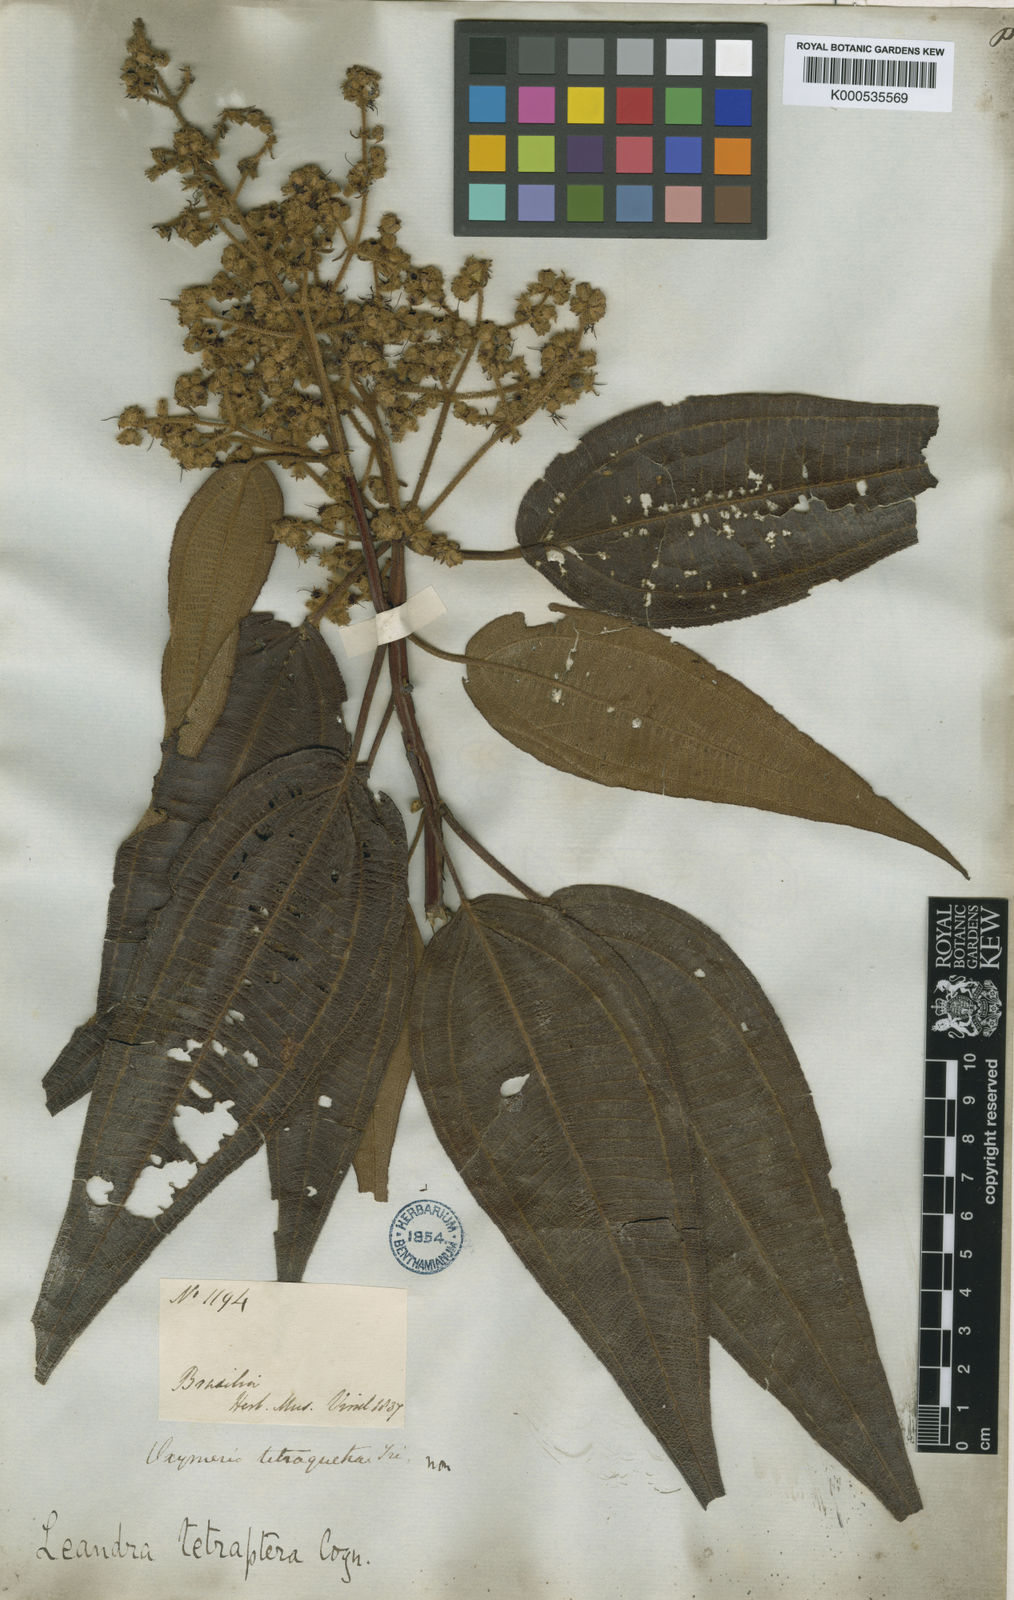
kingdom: Plantae
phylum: Tracheophyta
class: Magnoliopsida
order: Myrtales
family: Melastomataceae
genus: Miconia
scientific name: Miconia leatetraptera
